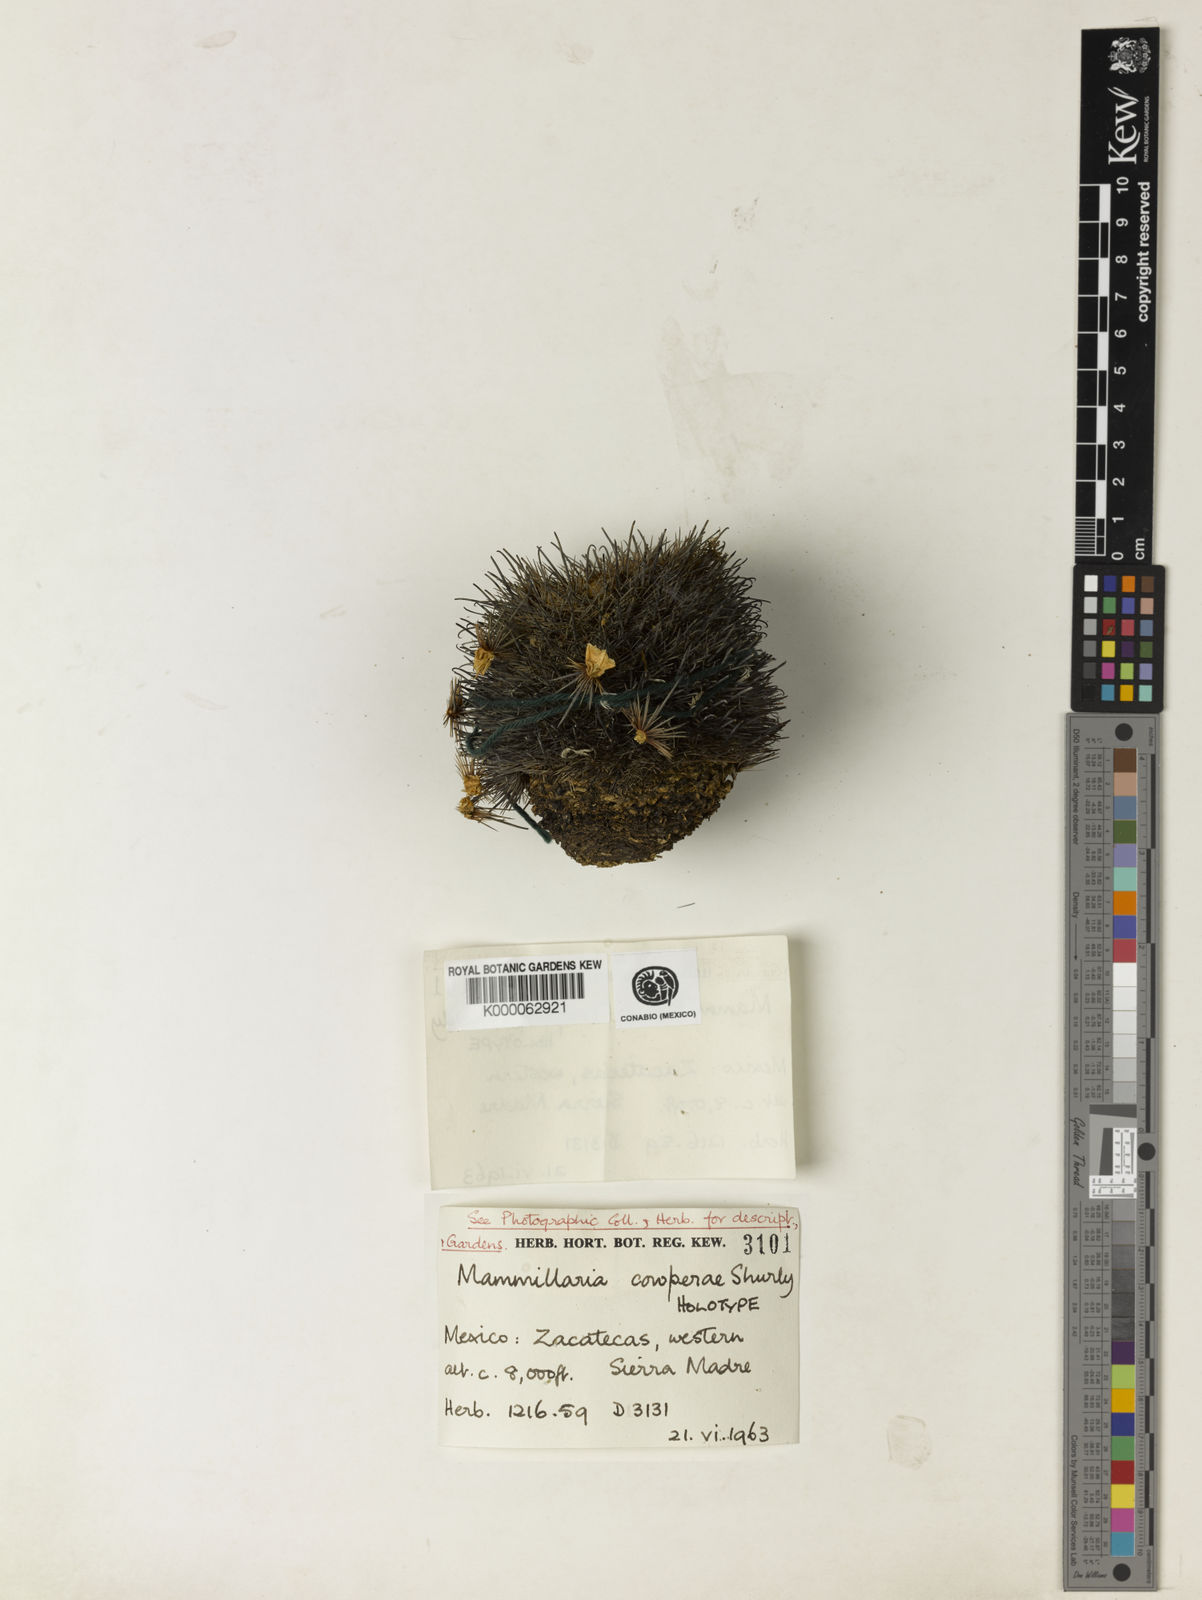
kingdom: Plantae
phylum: Tracheophyta
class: Magnoliopsida
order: Caryophyllales
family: Cactaceae
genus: Mammillaria
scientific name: Mammillaria moelleriana
